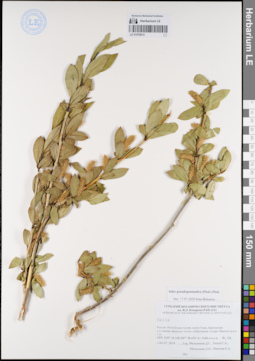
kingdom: Plantae
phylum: Tracheophyta
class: Magnoliopsida
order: Malpighiales
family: Salicaceae
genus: Salix
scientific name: Salix pseudopentandra
